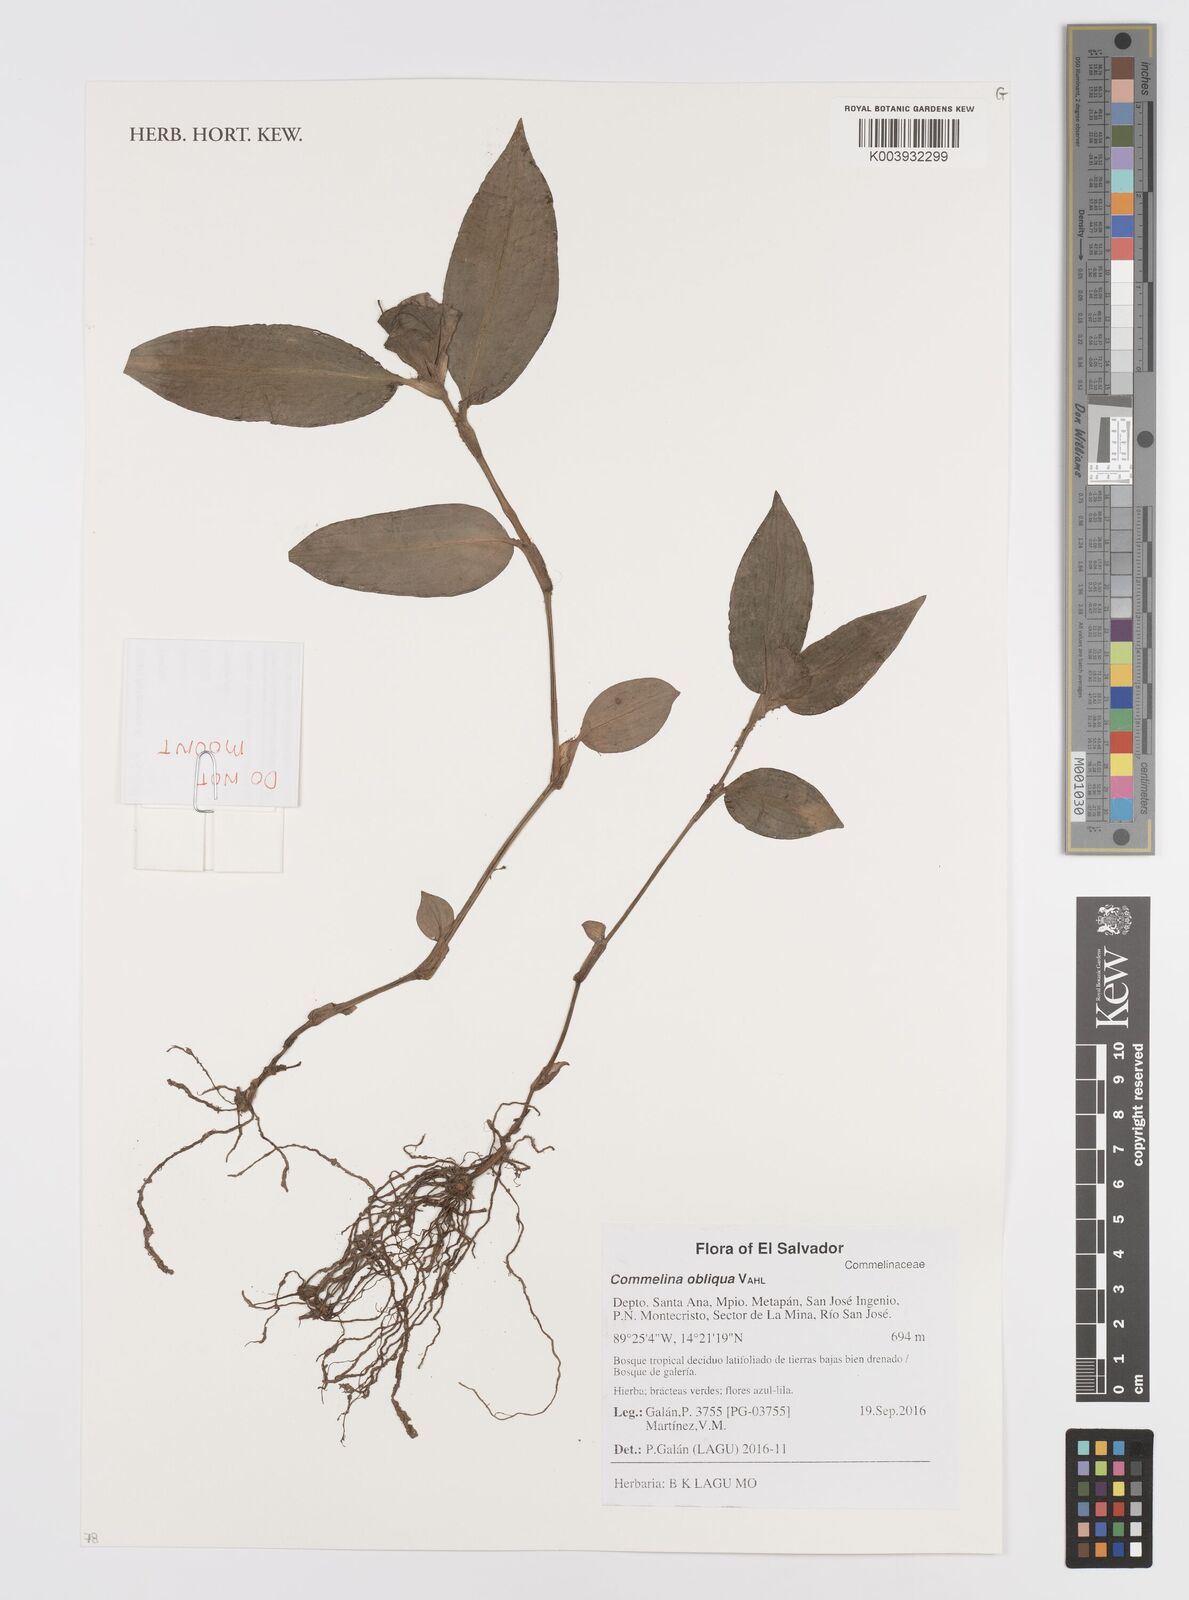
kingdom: Plantae
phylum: Tracheophyta
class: Liliopsida
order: Commelinales
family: Commelinaceae
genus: Commelina
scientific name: Commelina obliqua
